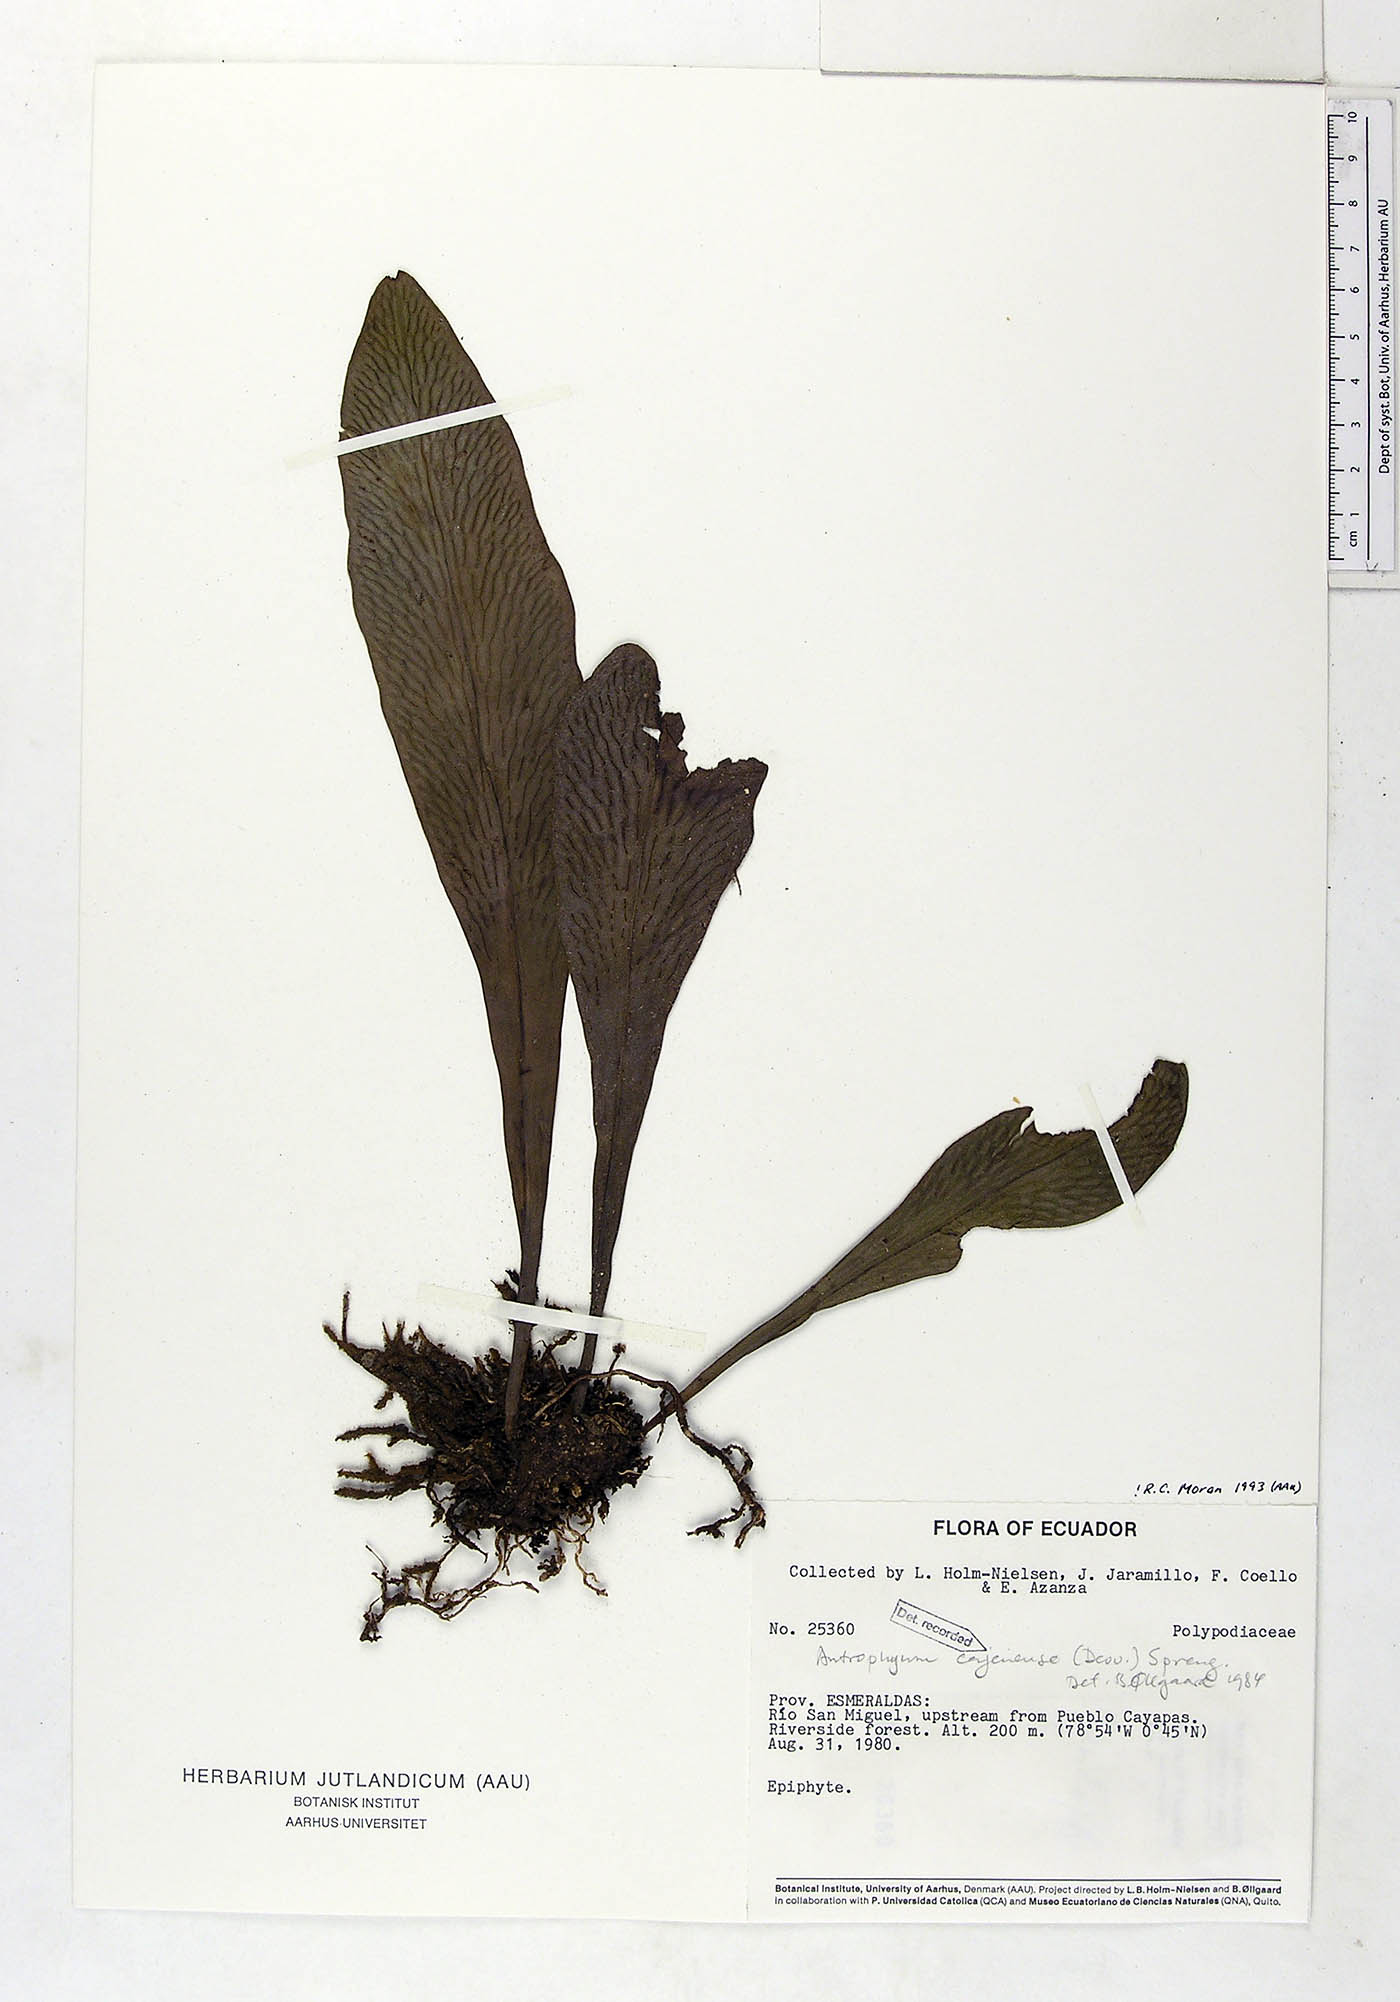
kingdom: Plantae
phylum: Tracheophyta
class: Polypodiopsida
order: Polypodiales
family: Pteridaceae
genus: Polytaenium
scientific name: Polytaenium cajenense
